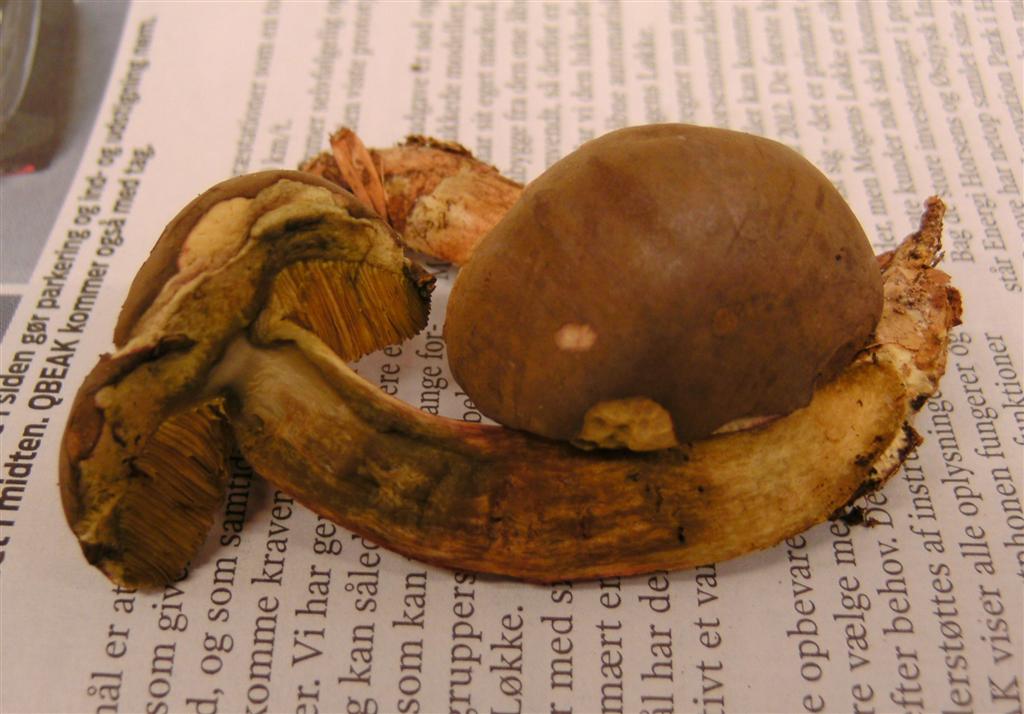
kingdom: Fungi
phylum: Basidiomycota
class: Agaricomycetes
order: Boletales
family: Boletaceae
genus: Xerocomus
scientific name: Xerocomus subtomentosus
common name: filtet rørhat
